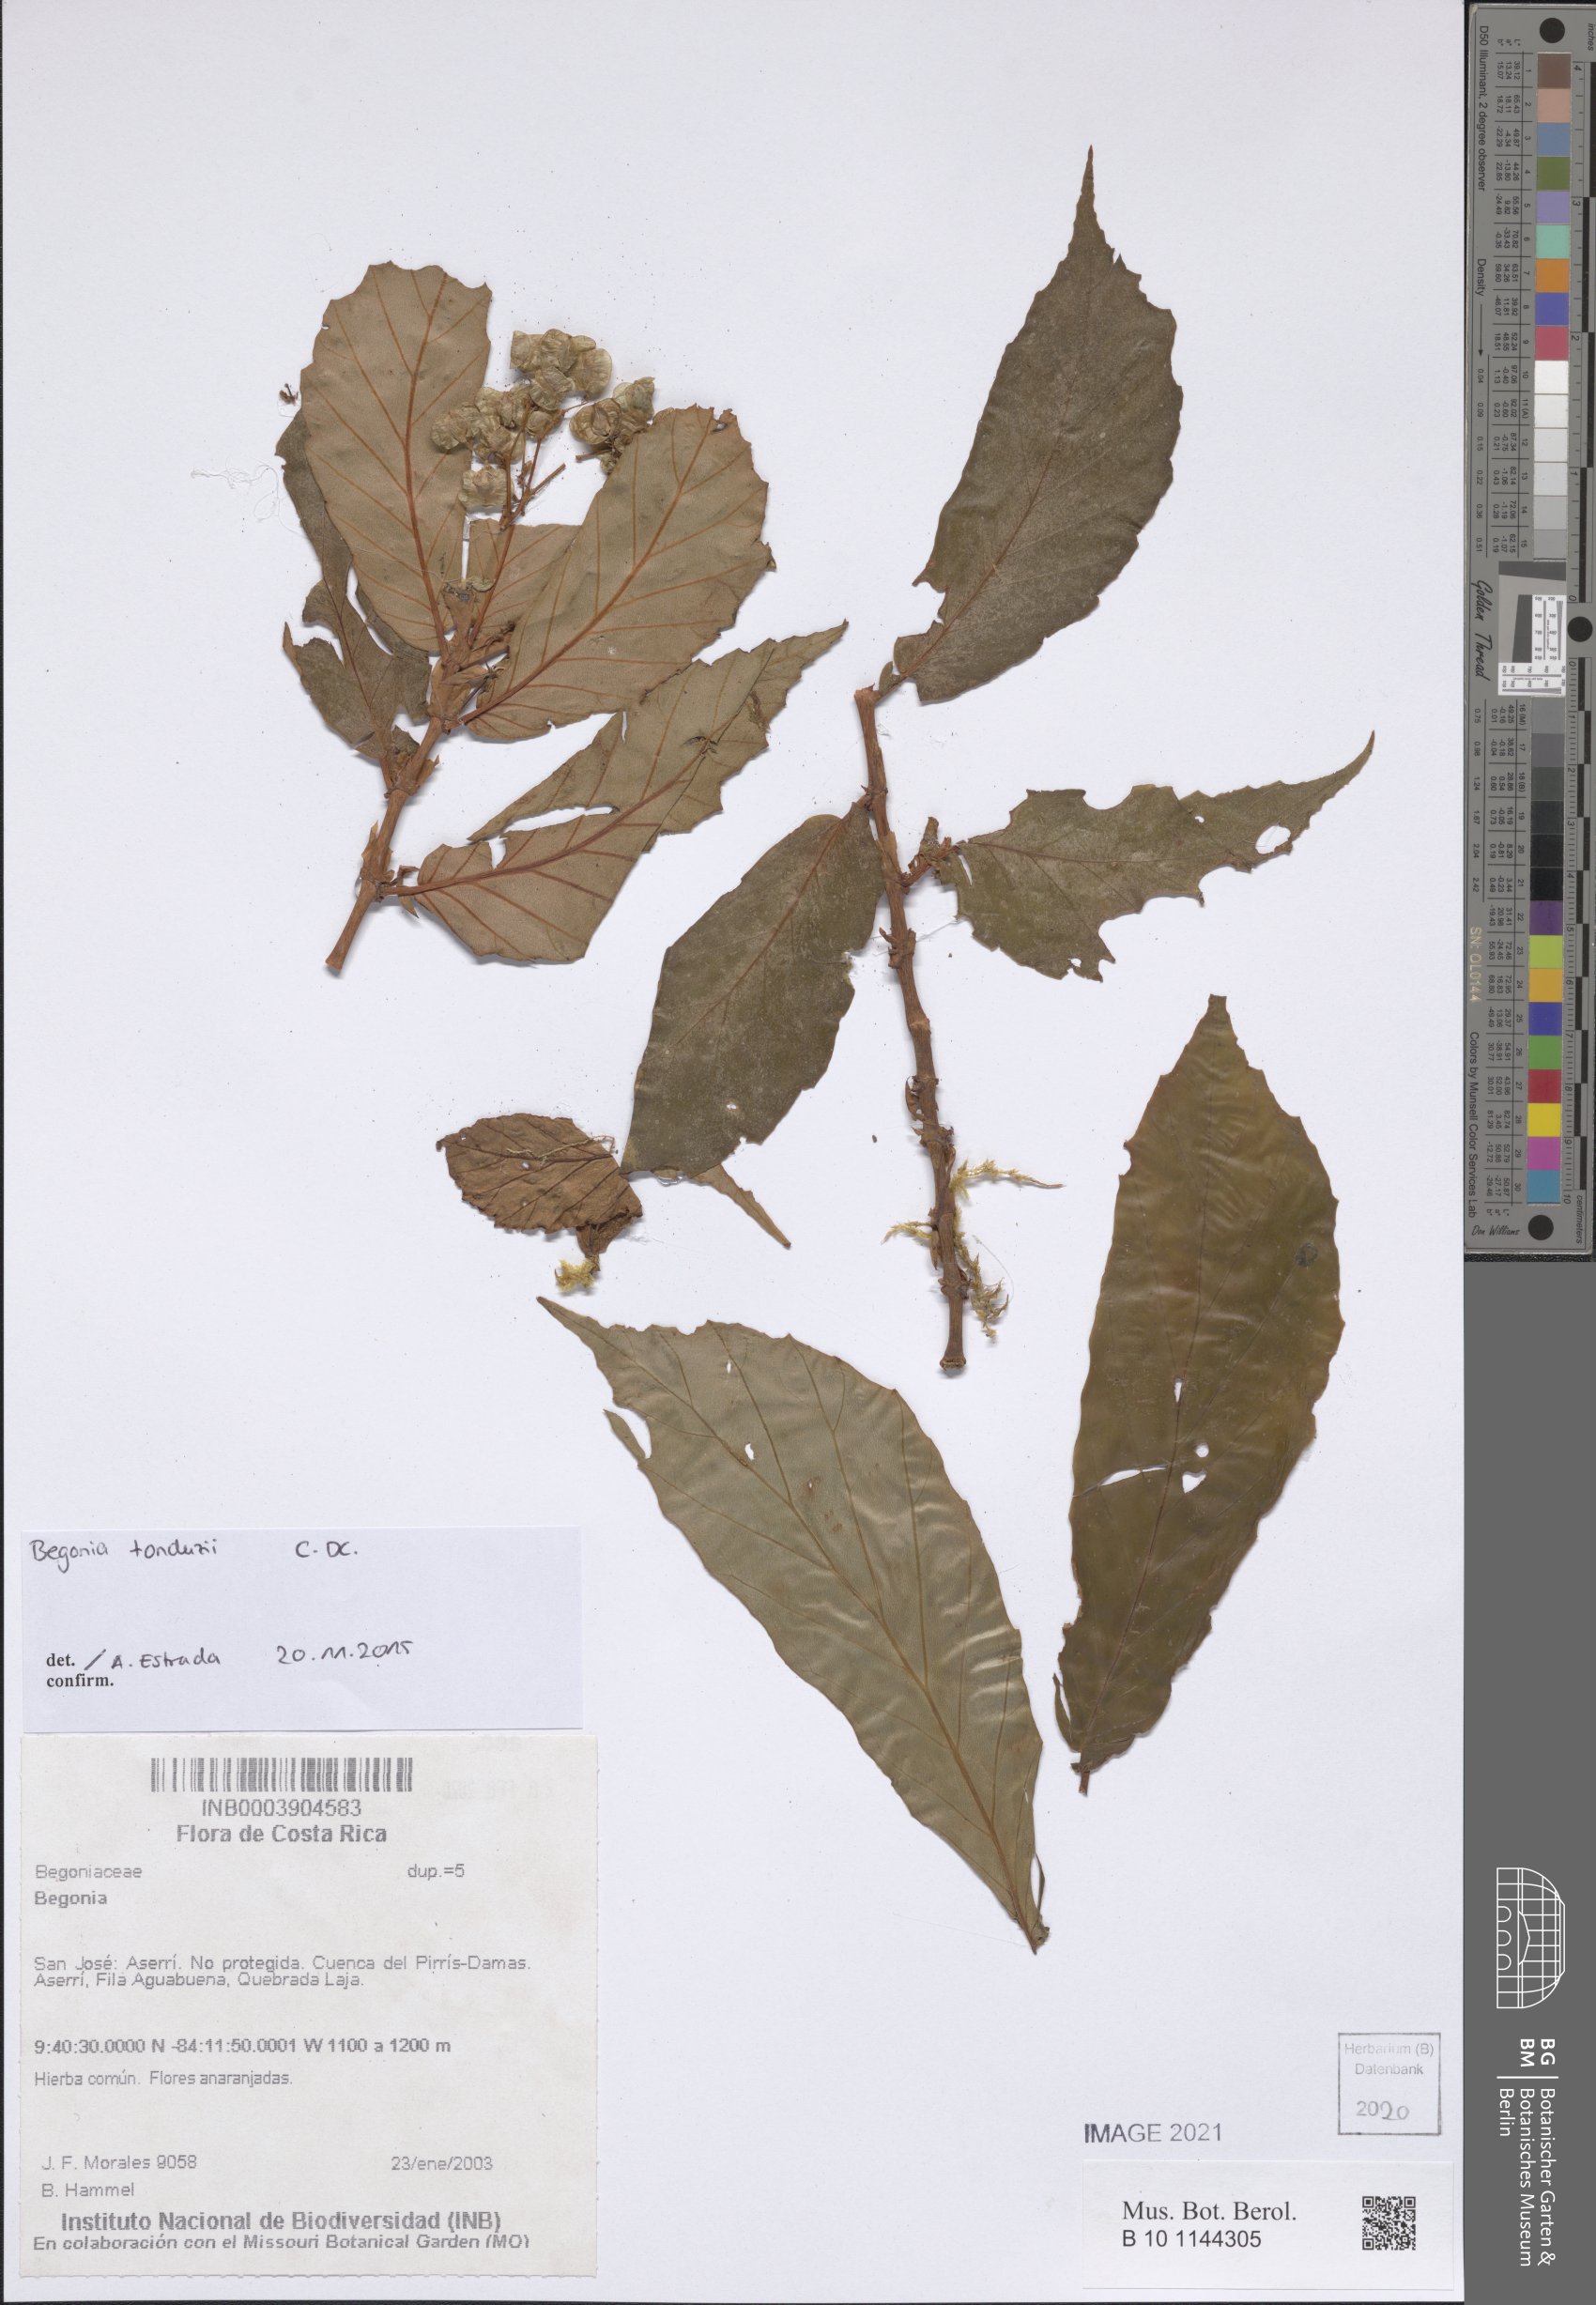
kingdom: Plantae
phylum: Tracheophyta
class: Magnoliopsida
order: Cucurbitales
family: Begoniaceae
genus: Begonia
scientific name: Begonia
